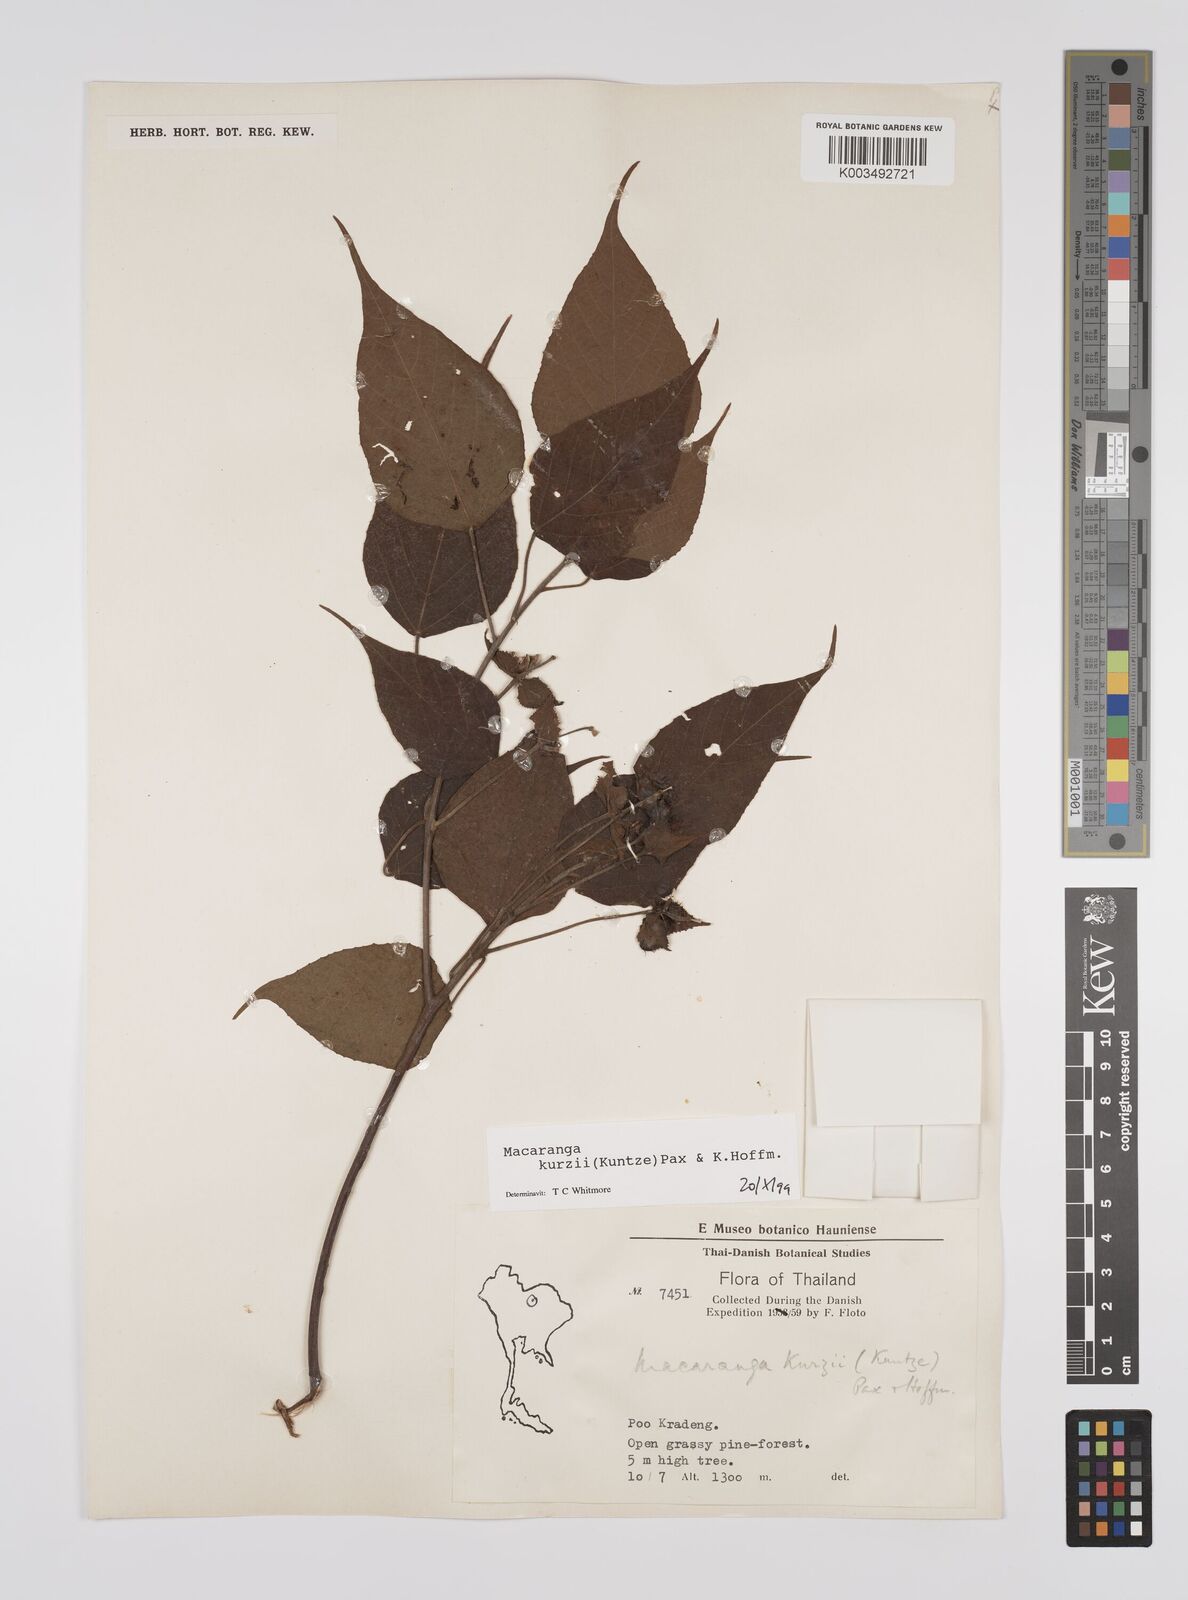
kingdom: Plantae
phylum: Tracheophyta
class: Magnoliopsida
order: Malpighiales
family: Euphorbiaceae
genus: Macaranga
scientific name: Macaranga kurzii
